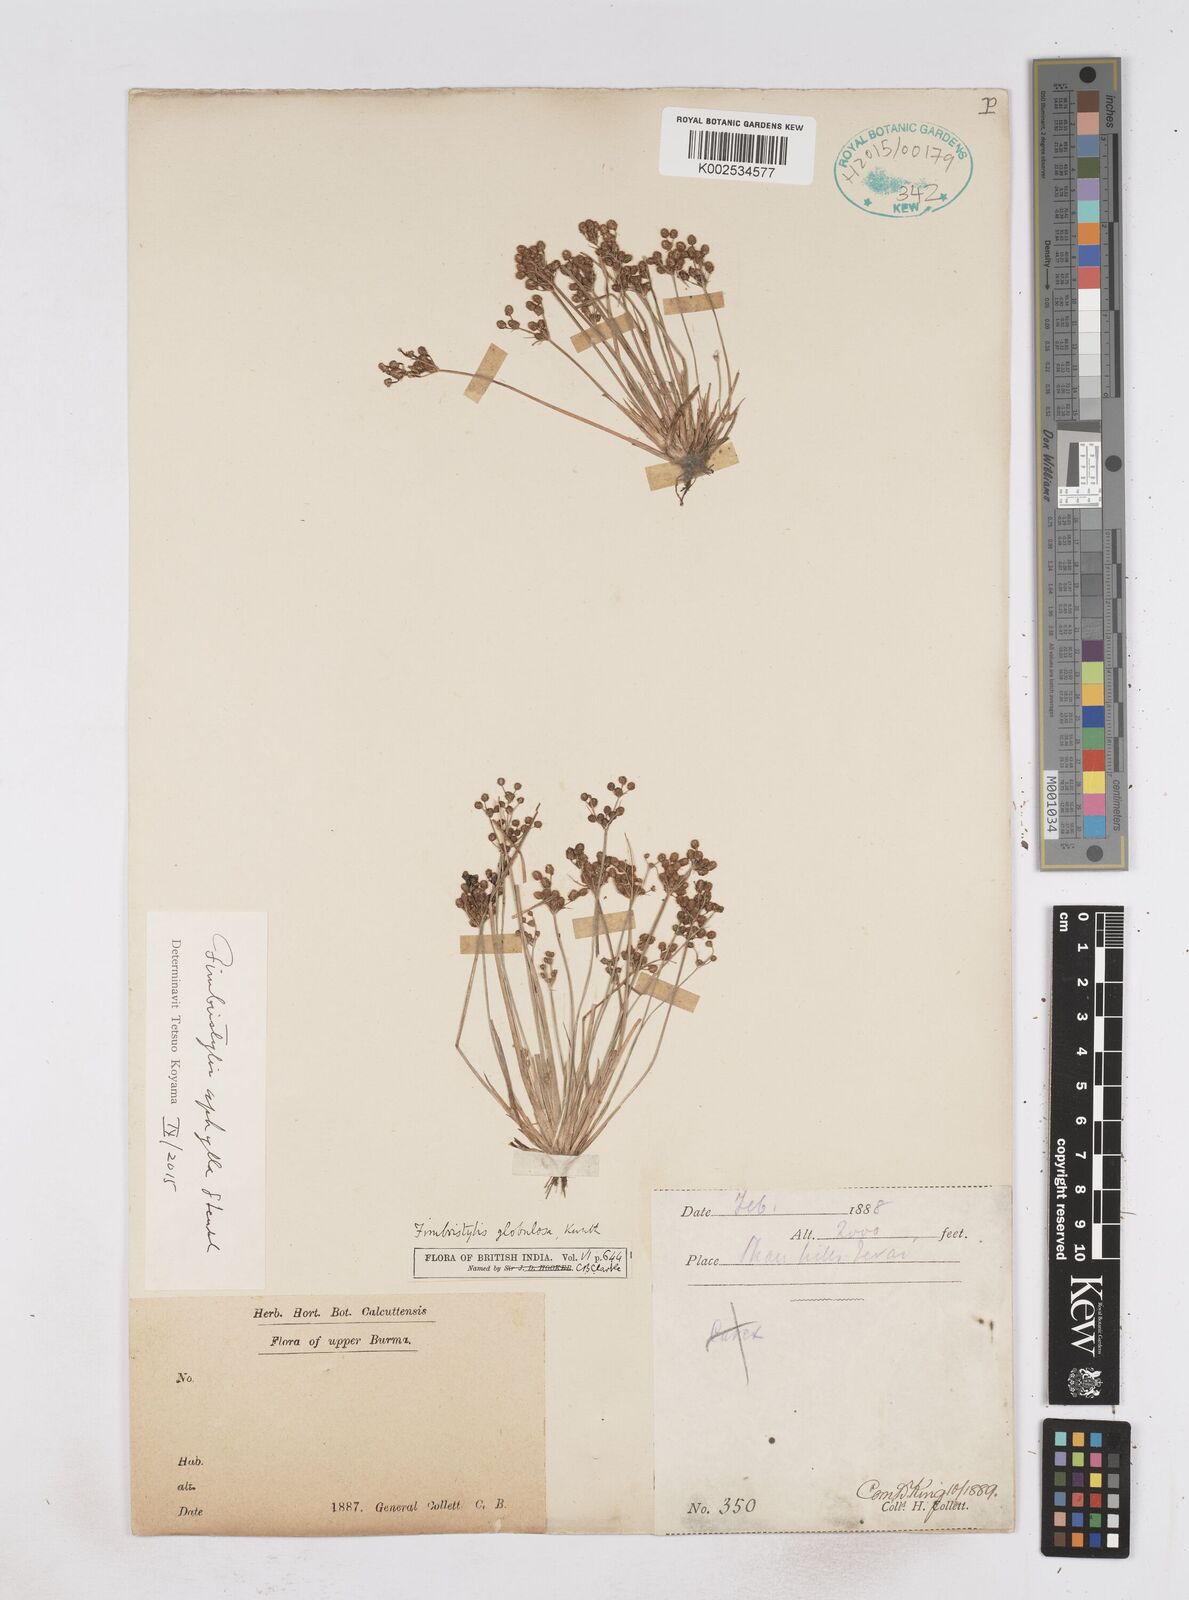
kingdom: Plantae
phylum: Tracheophyta
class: Liliopsida
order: Poales
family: Cyperaceae
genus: Fimbristylis
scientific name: Fimbristylis aphylla
